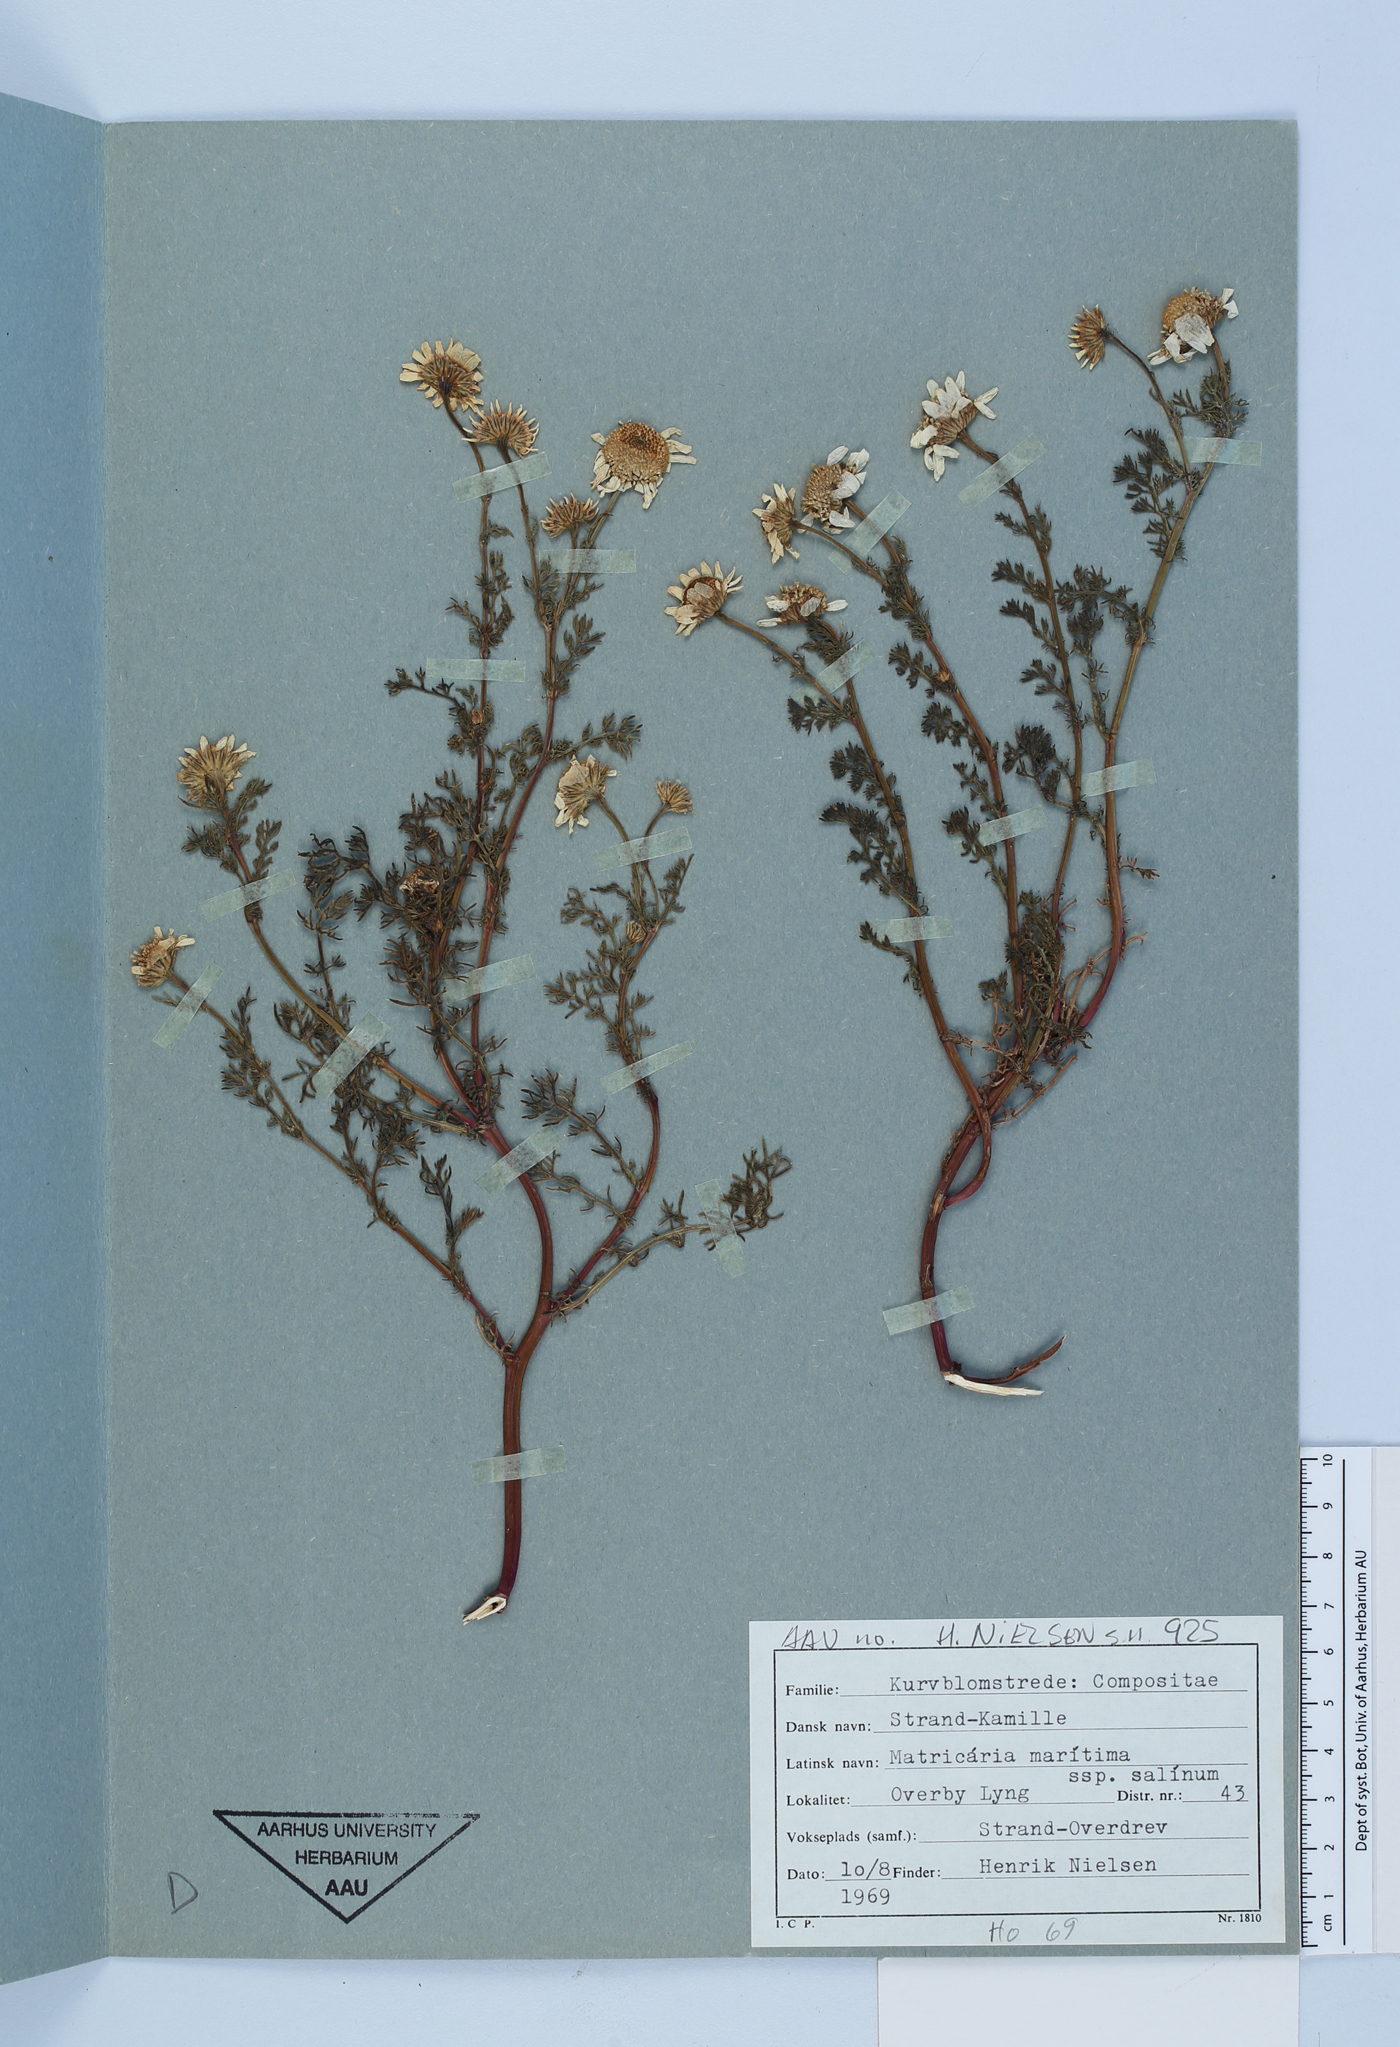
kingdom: Plantae
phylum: Tracheophyta
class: Magnoliopsida
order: Asterales
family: Asteraceae
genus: Tripleurospermum
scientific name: Tripleurospermum maritimum
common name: Sea mayweed
